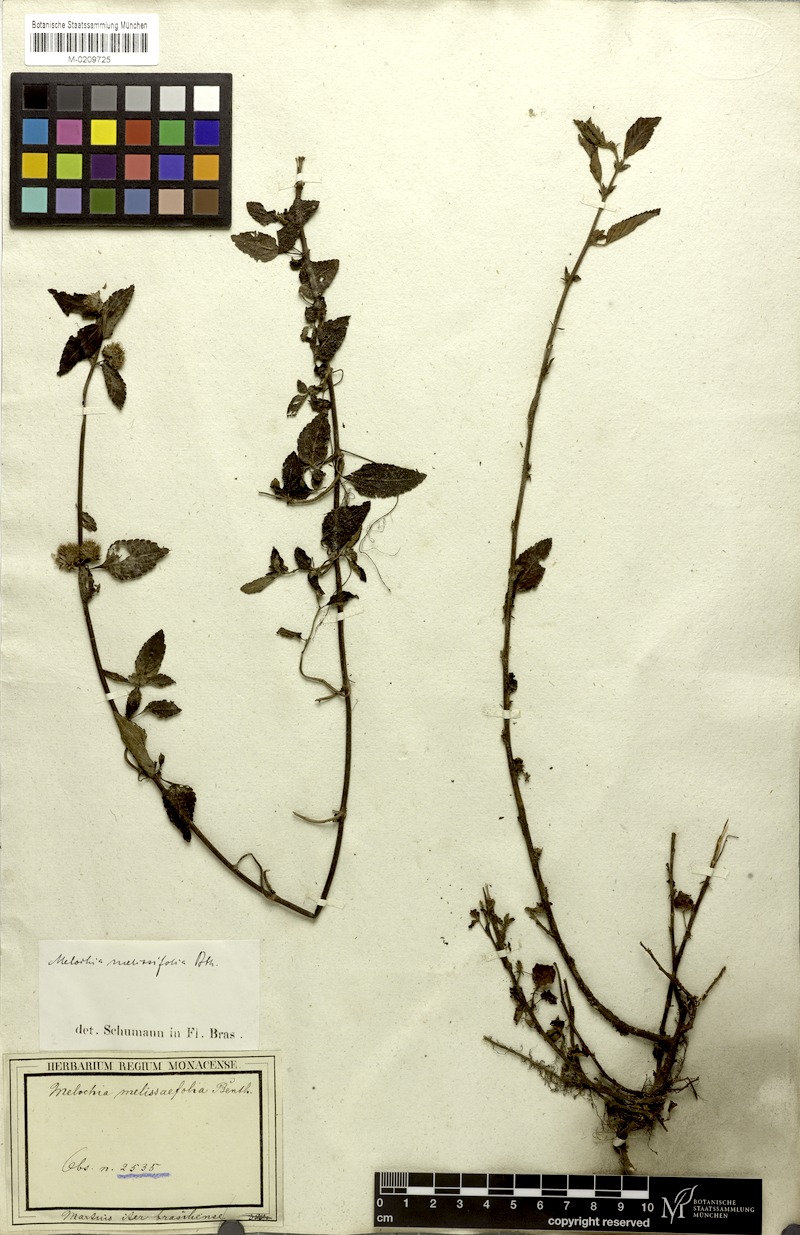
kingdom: Plantae
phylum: Tracheophyta
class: Magnoliopsida
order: Malvales
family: Malvaceae
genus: Melochia
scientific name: Melochia melissifolia
